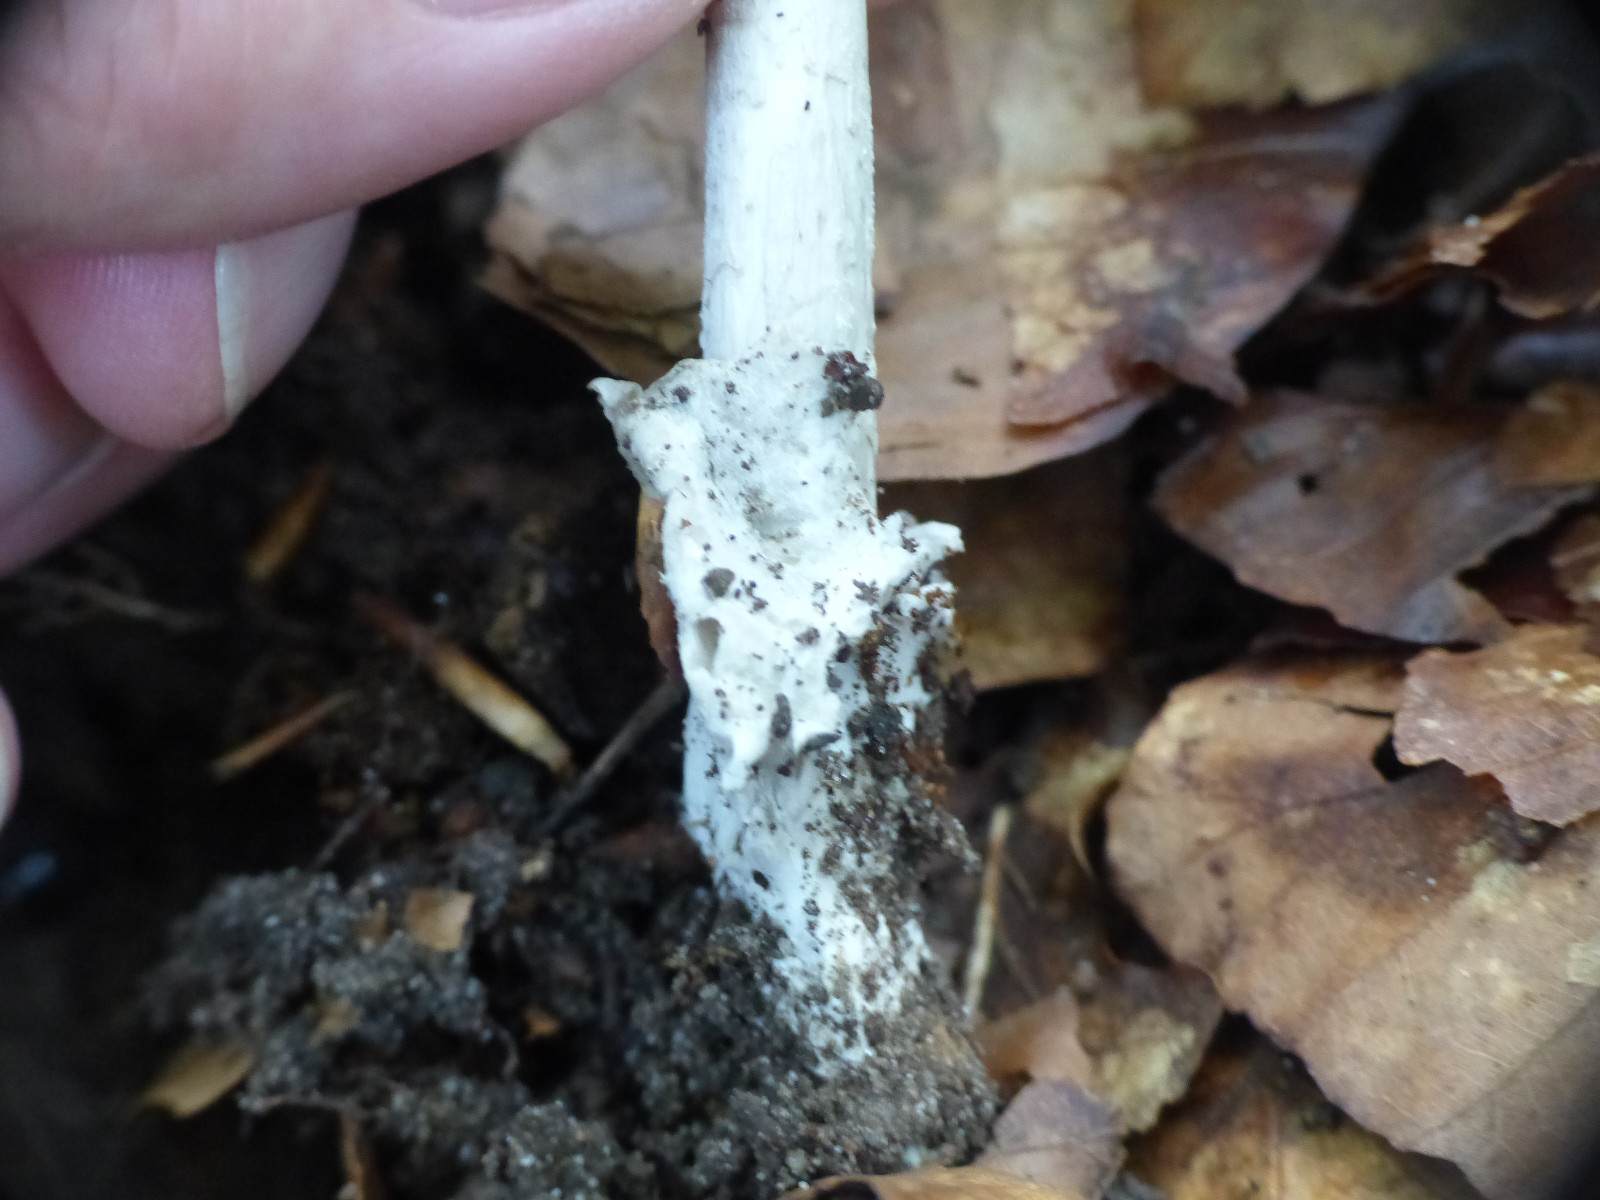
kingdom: Fungi
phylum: Basidiomycota
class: Agaricomycetes
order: Agaricales
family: Amanitaceae
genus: Amanita
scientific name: Amanita vaginata
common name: grå kam-fluesvamp
